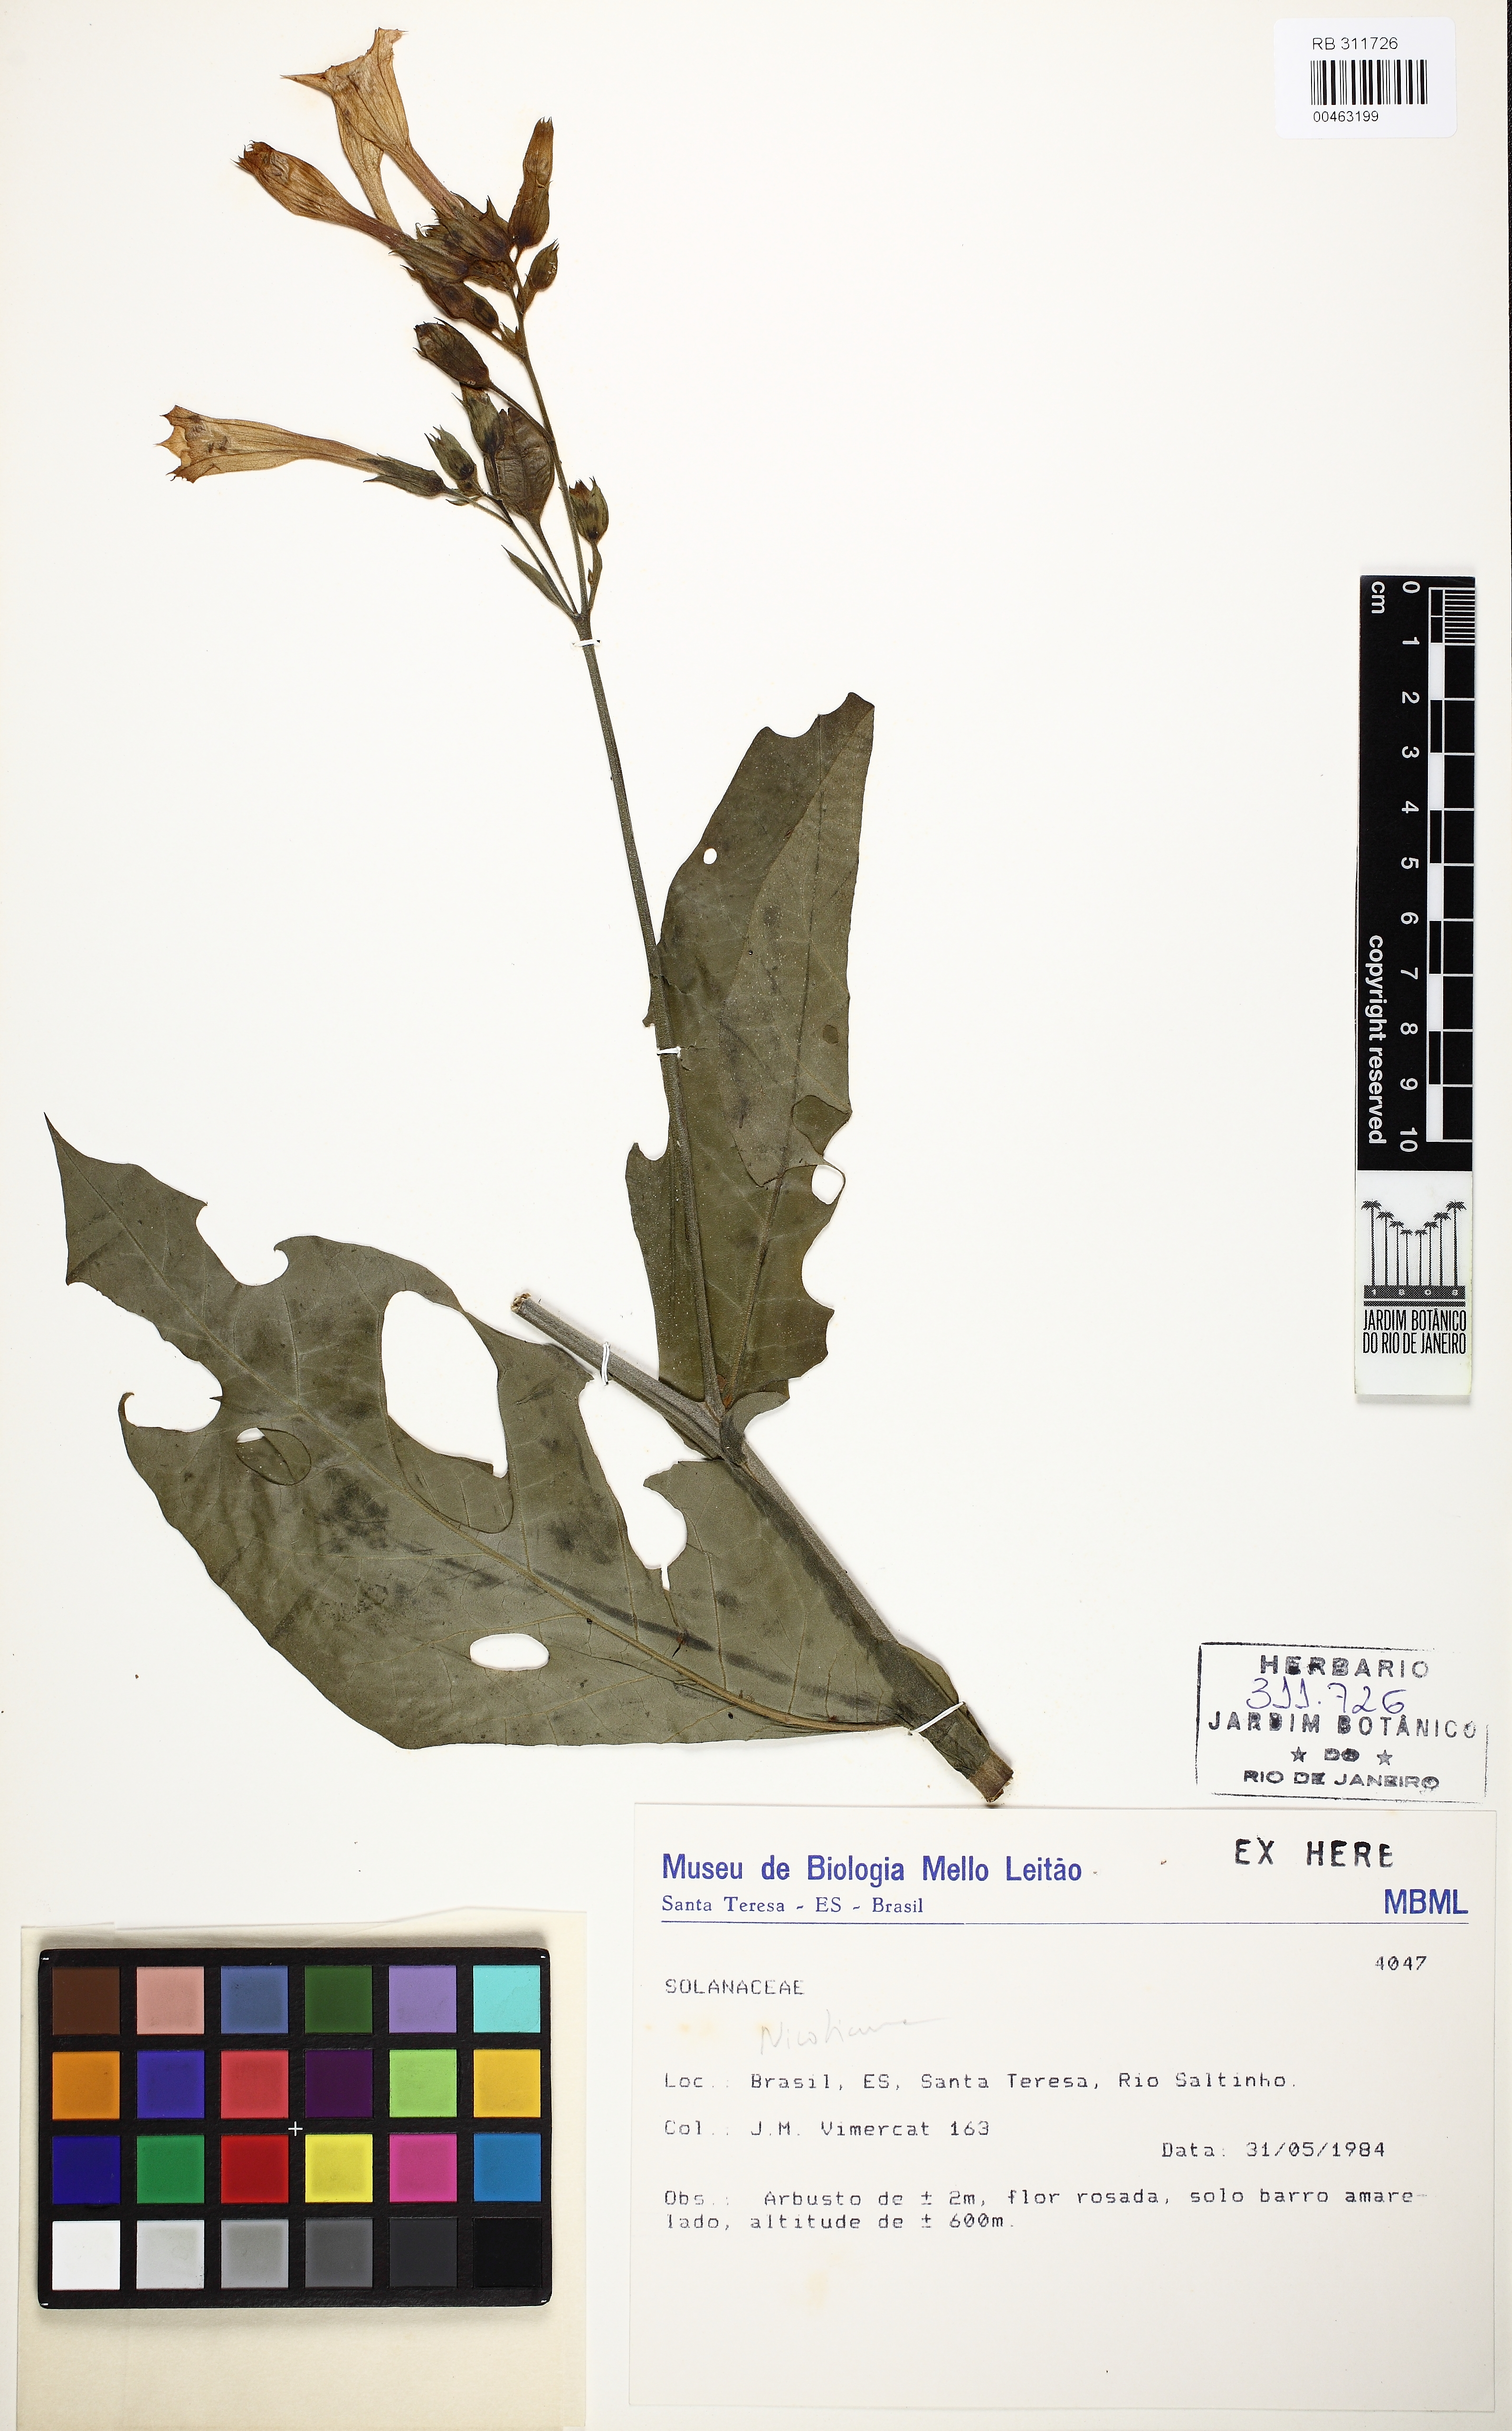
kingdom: Plantae
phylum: Tracheophyta
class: Magnoliopsida
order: Solanales
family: Solanaceae
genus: Nicotiana
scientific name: Nicotiana
